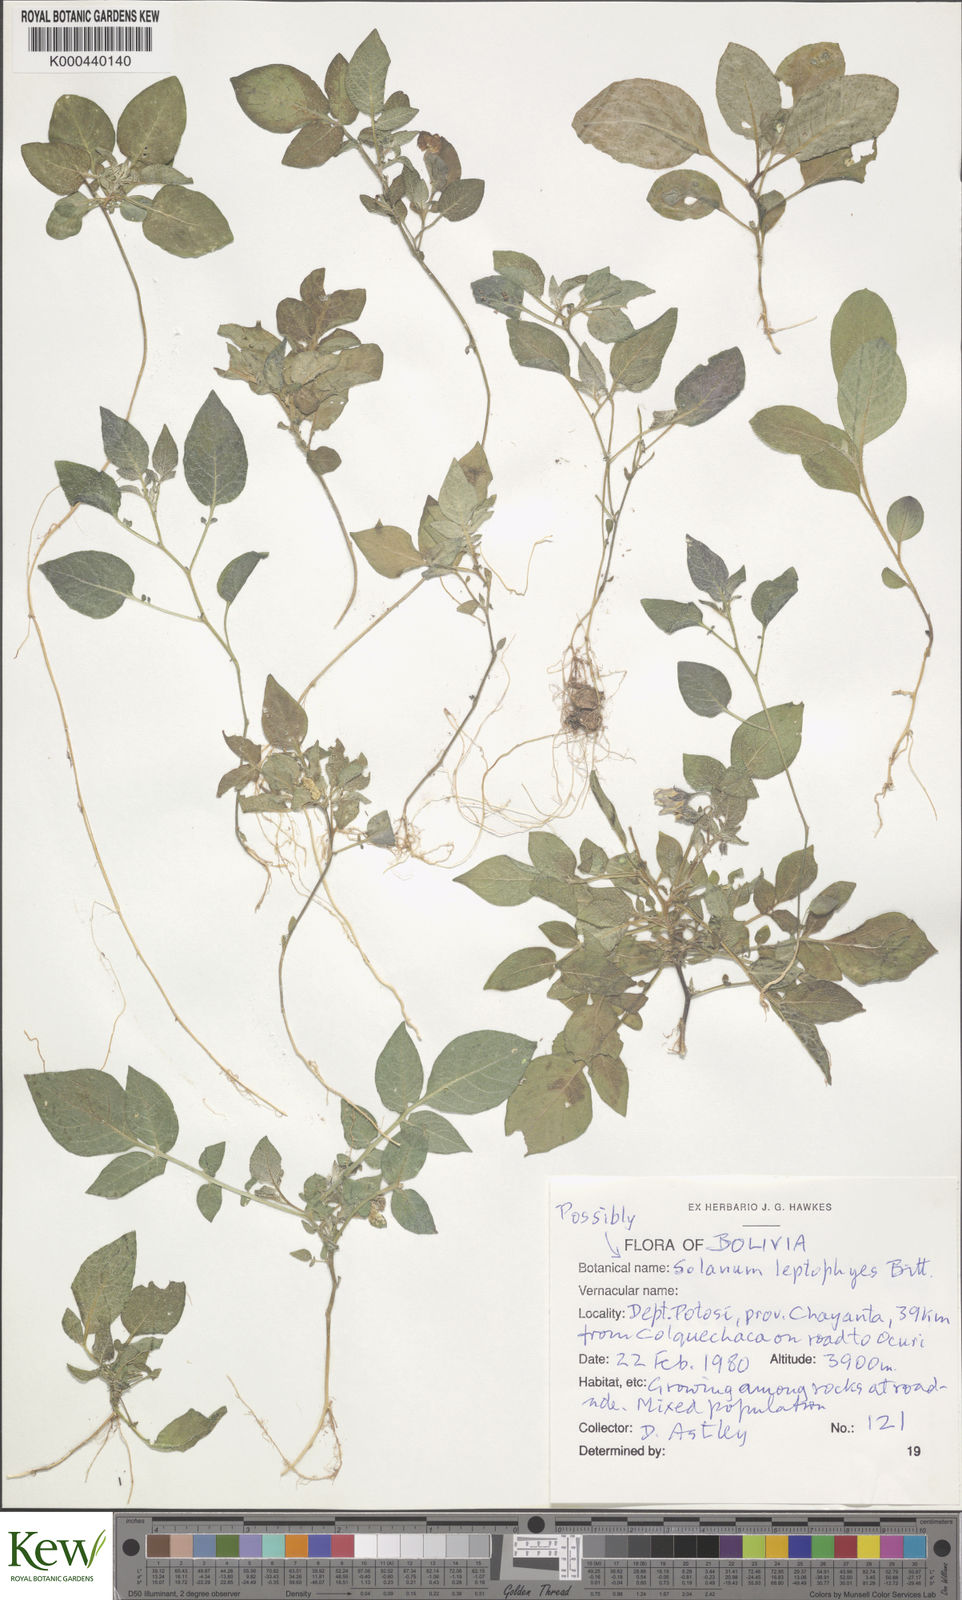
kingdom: Plantae
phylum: Tracheophyta
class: Magnoliopsida
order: Solanales
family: Solanaceae
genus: Solanum
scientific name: Solanum brevicaule
